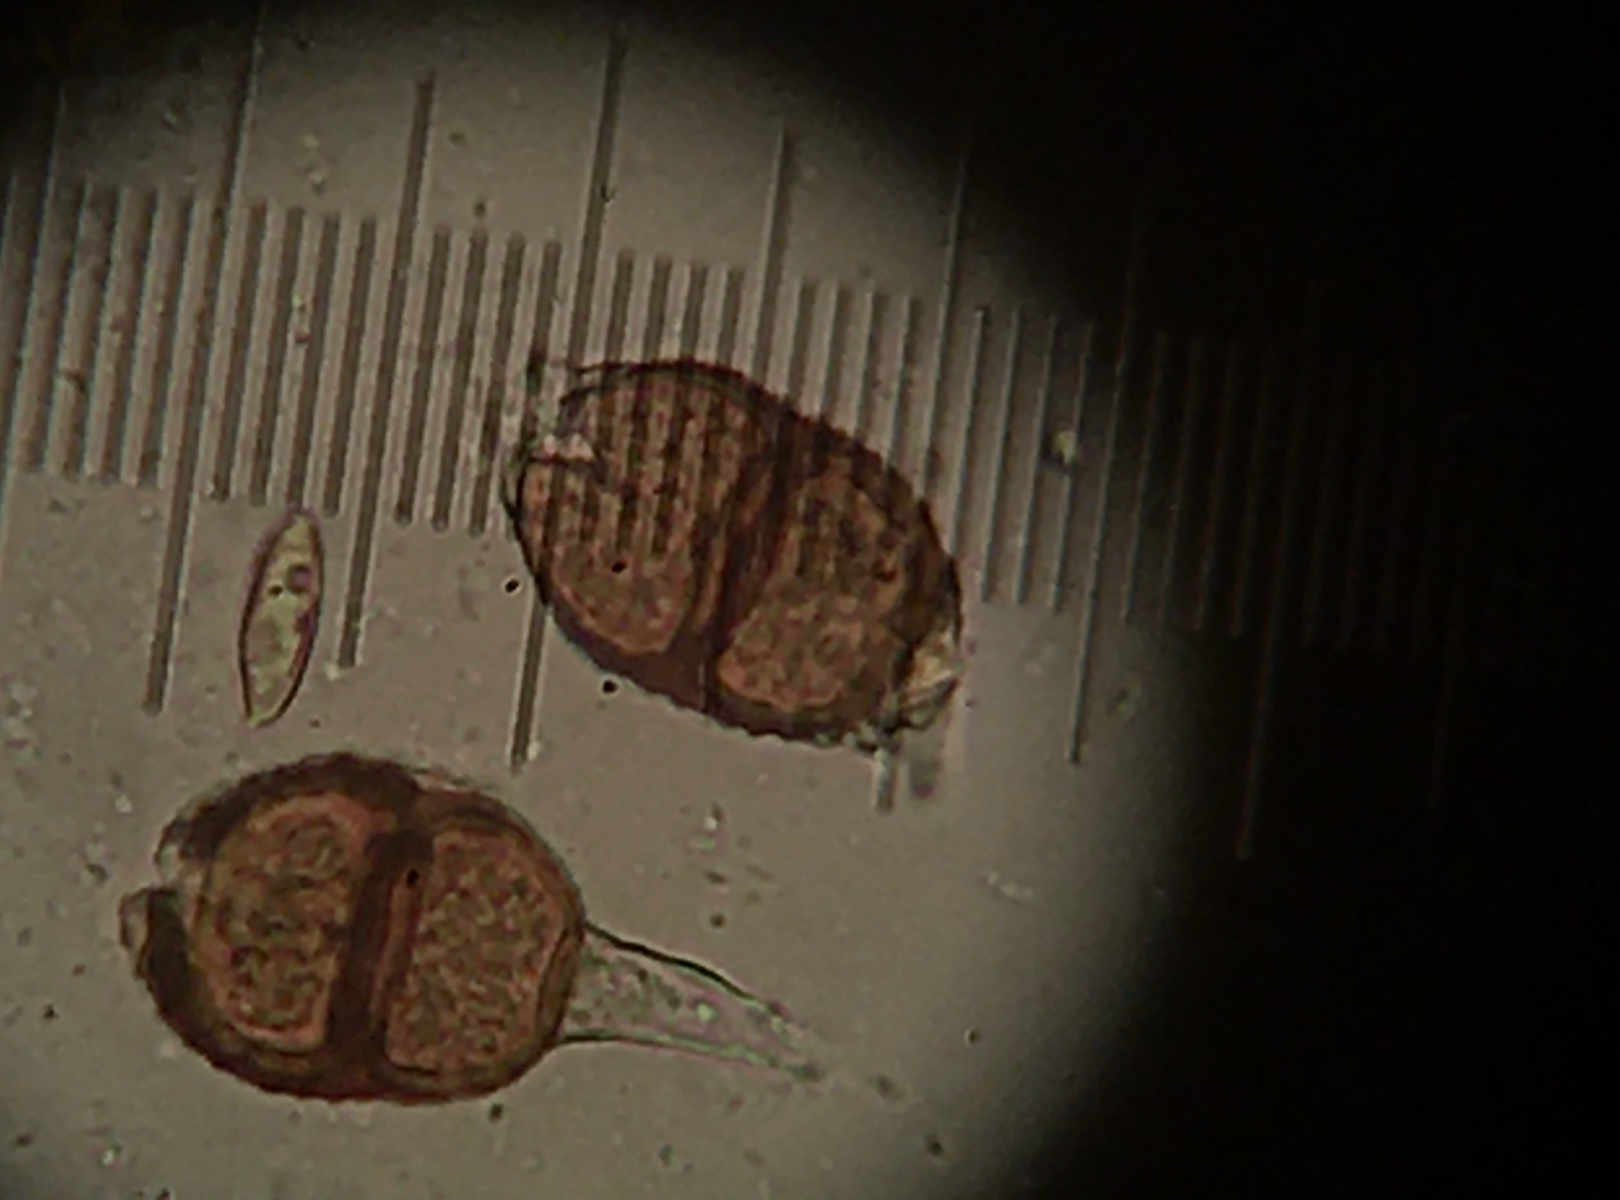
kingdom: Fungi
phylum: Basidiomycota
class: Pucciniomycetes
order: Pucciniales
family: Pucciniaceae
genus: Puccinia
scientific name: Puccinia menthae
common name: Mint rust
